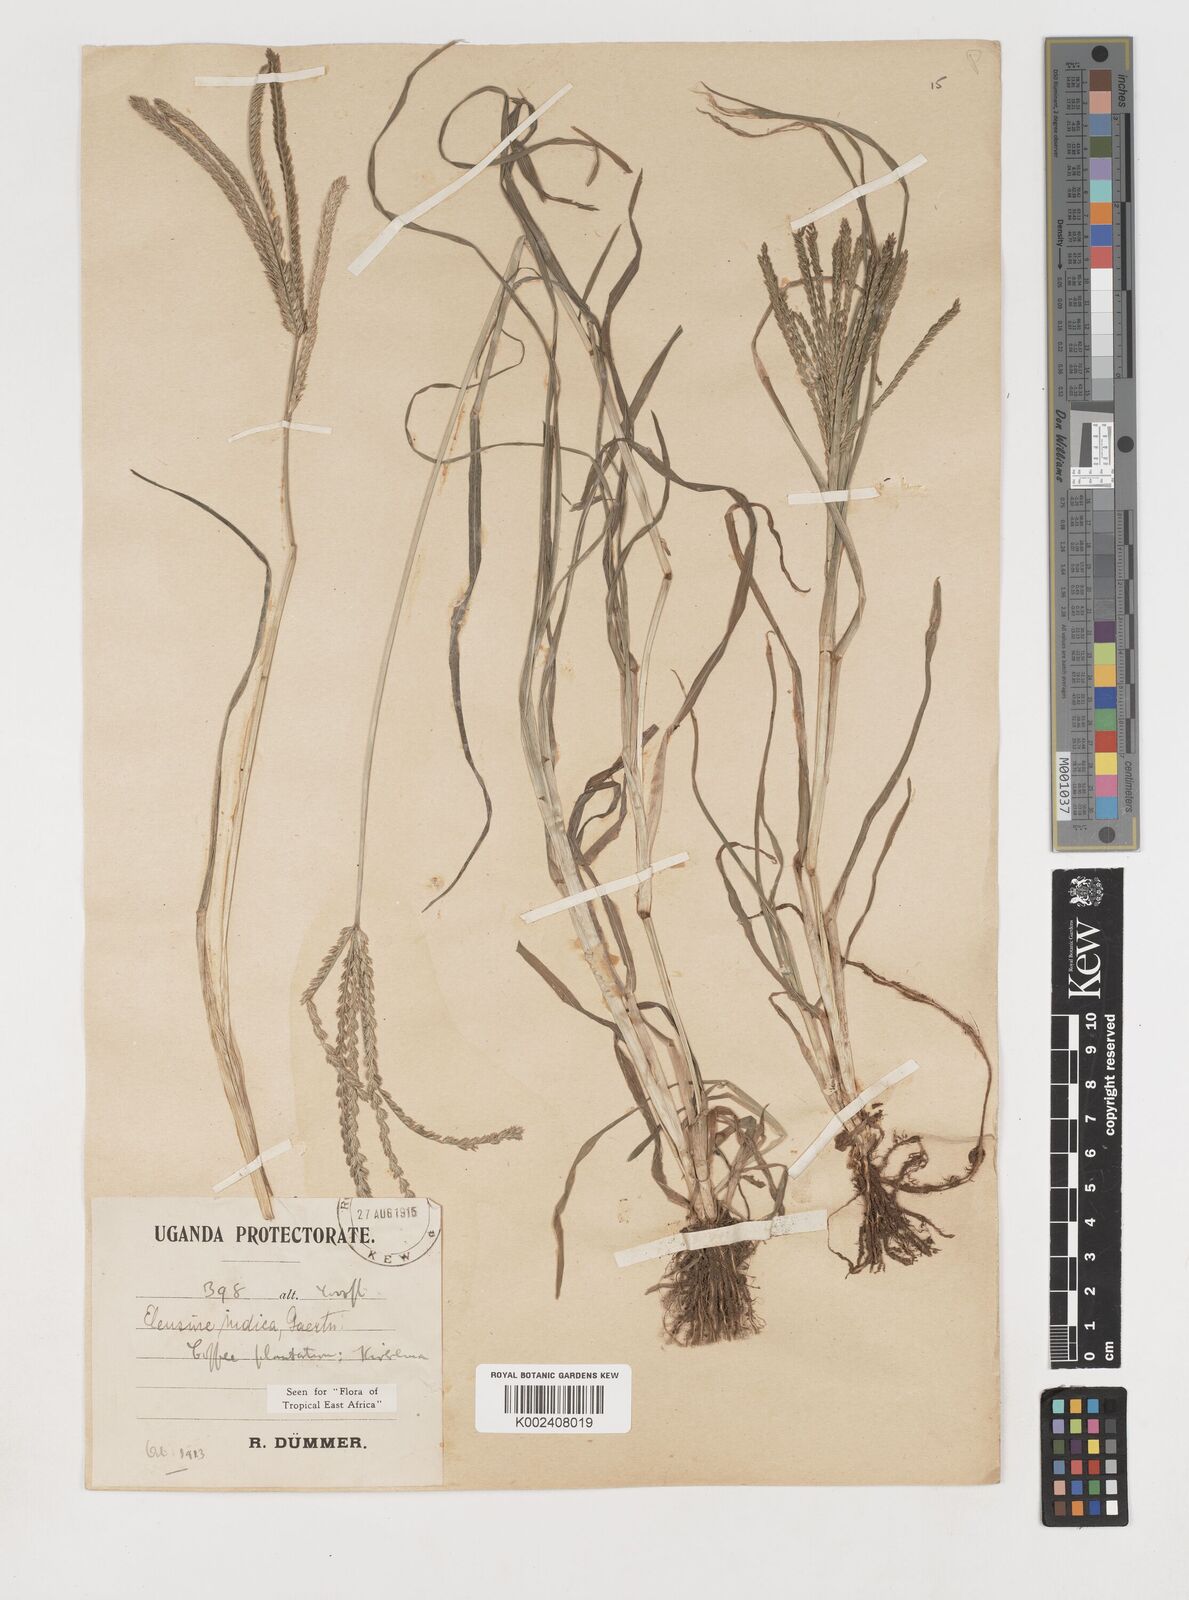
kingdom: Plantae
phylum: Tracheophyta
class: Liliopsida
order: Poales
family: Poaceae
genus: Eleusine
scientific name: Eleusine indica
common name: Yard-grass
